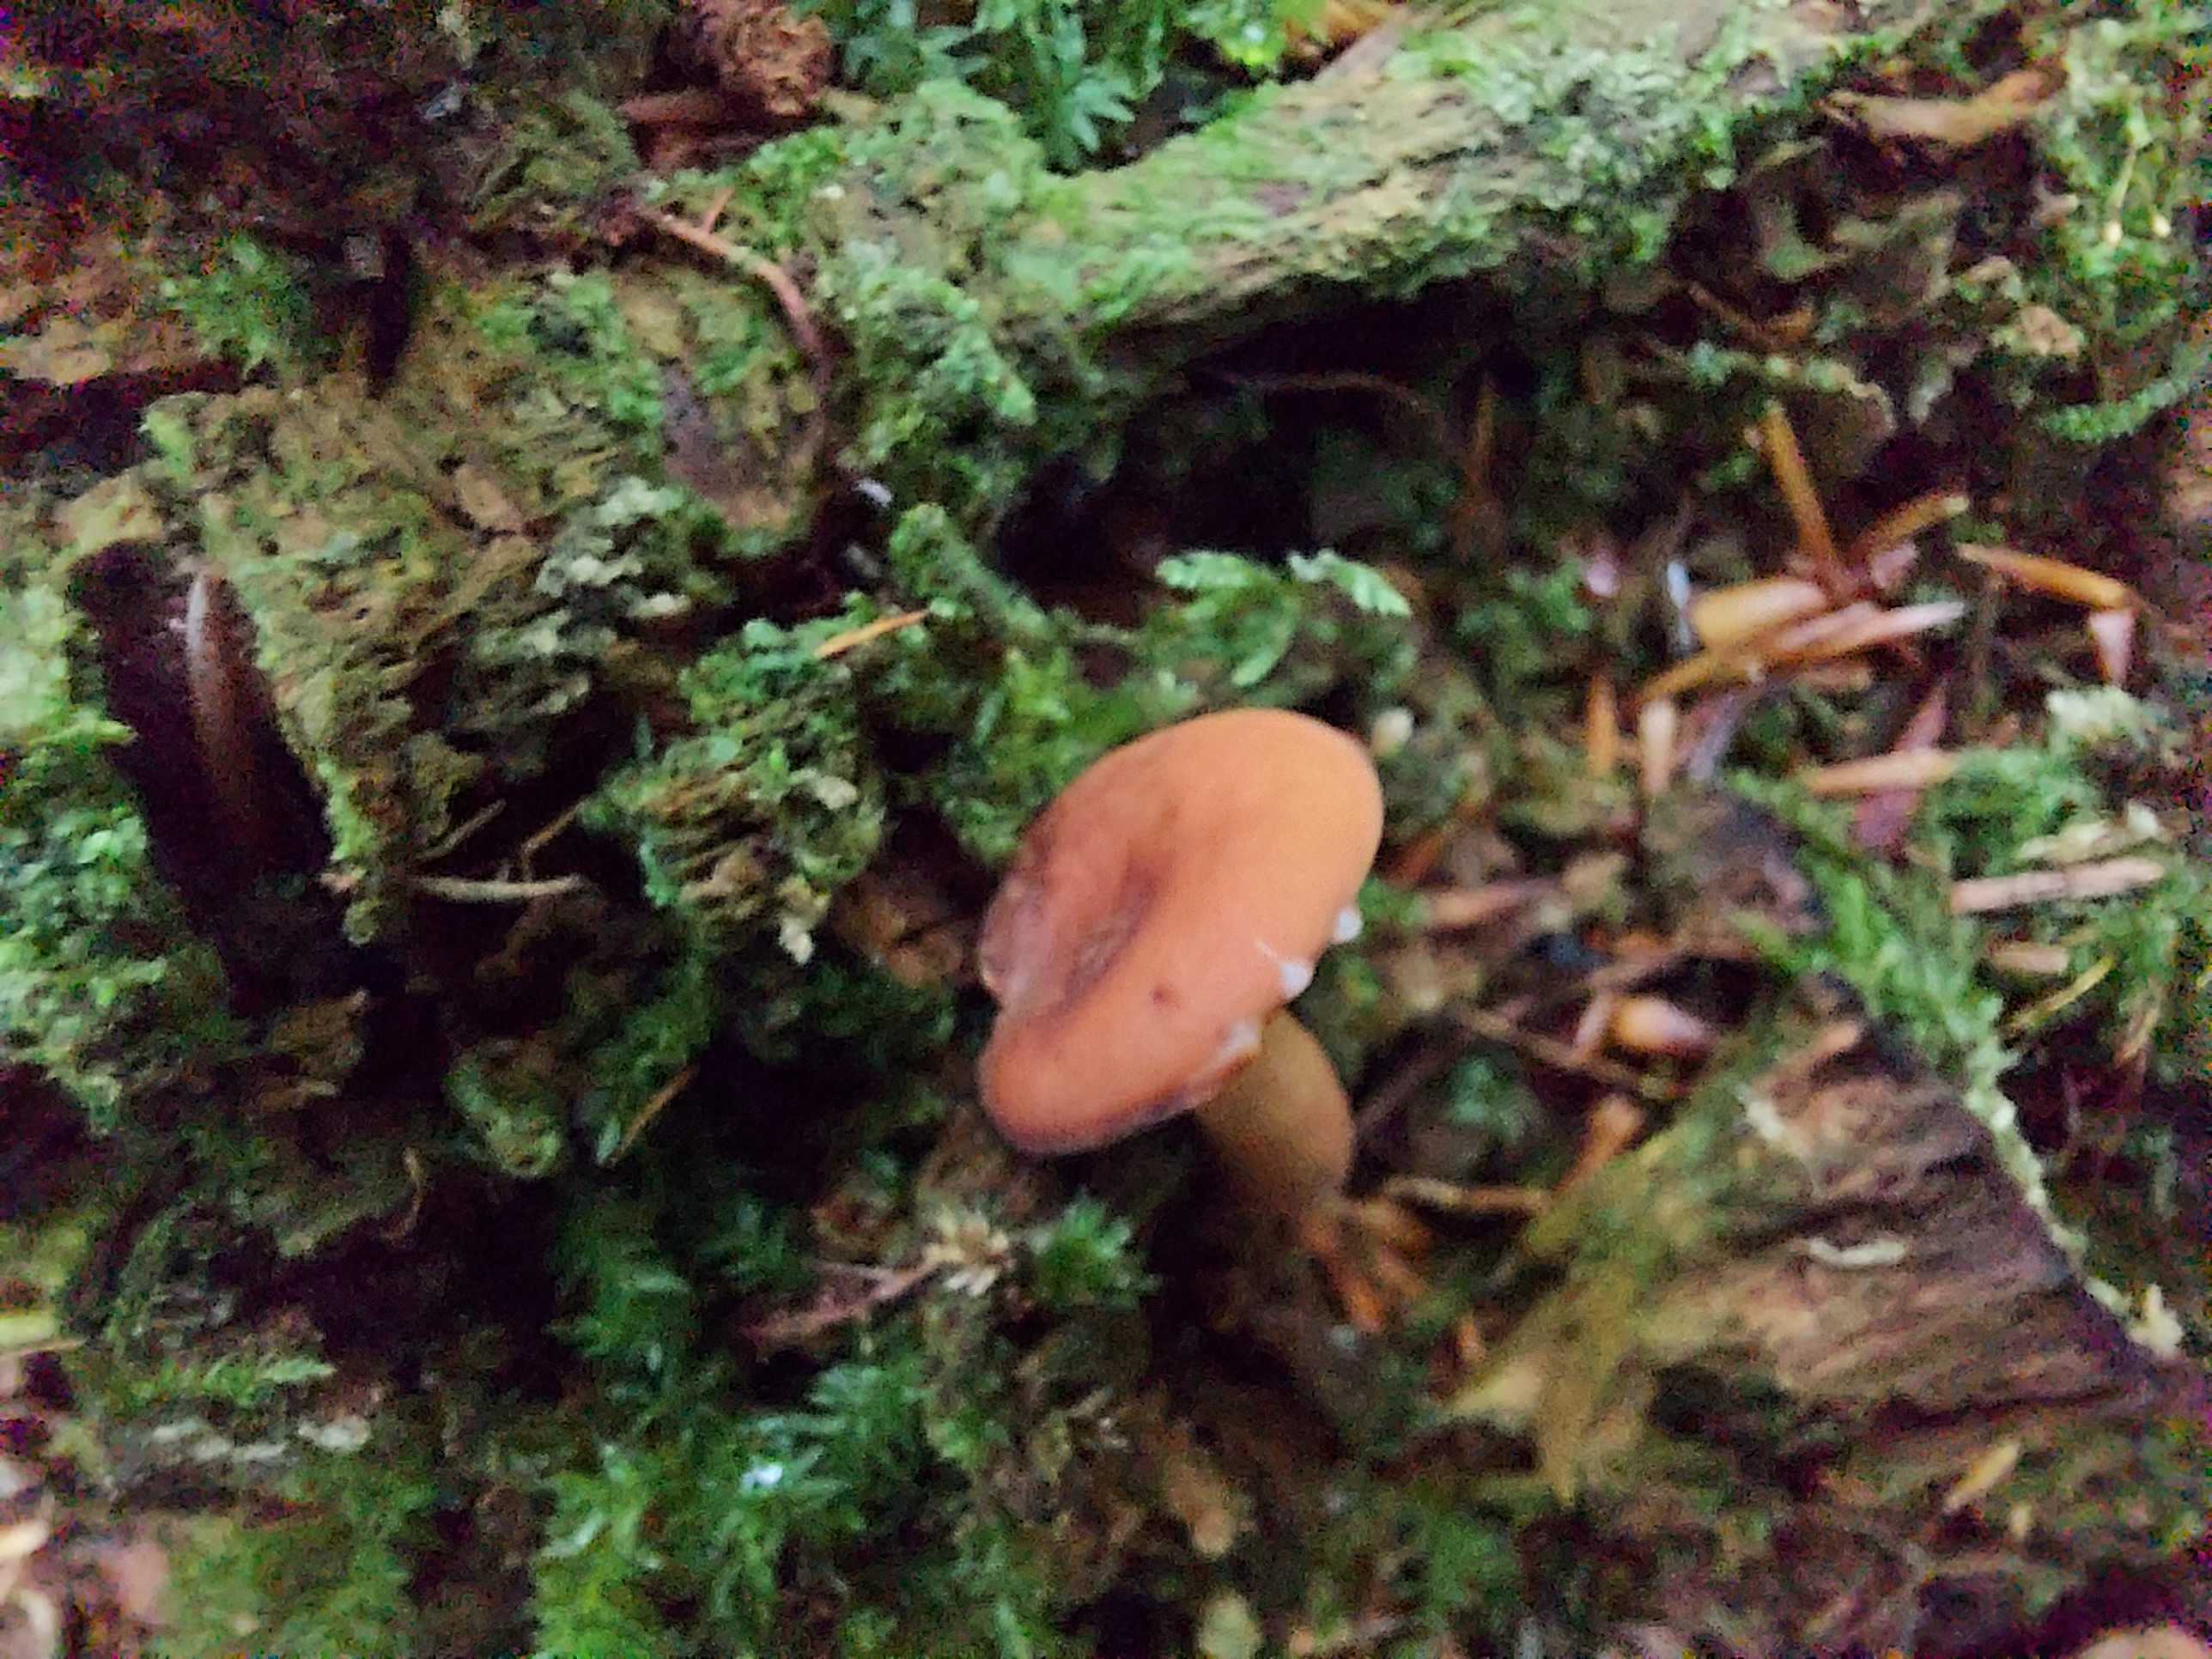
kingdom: Fungi
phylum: Basidiomycota
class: Agaricomycetes
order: Russulales
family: Russulaceae
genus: Lactarius
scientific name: Lactarius
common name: mælkehat
